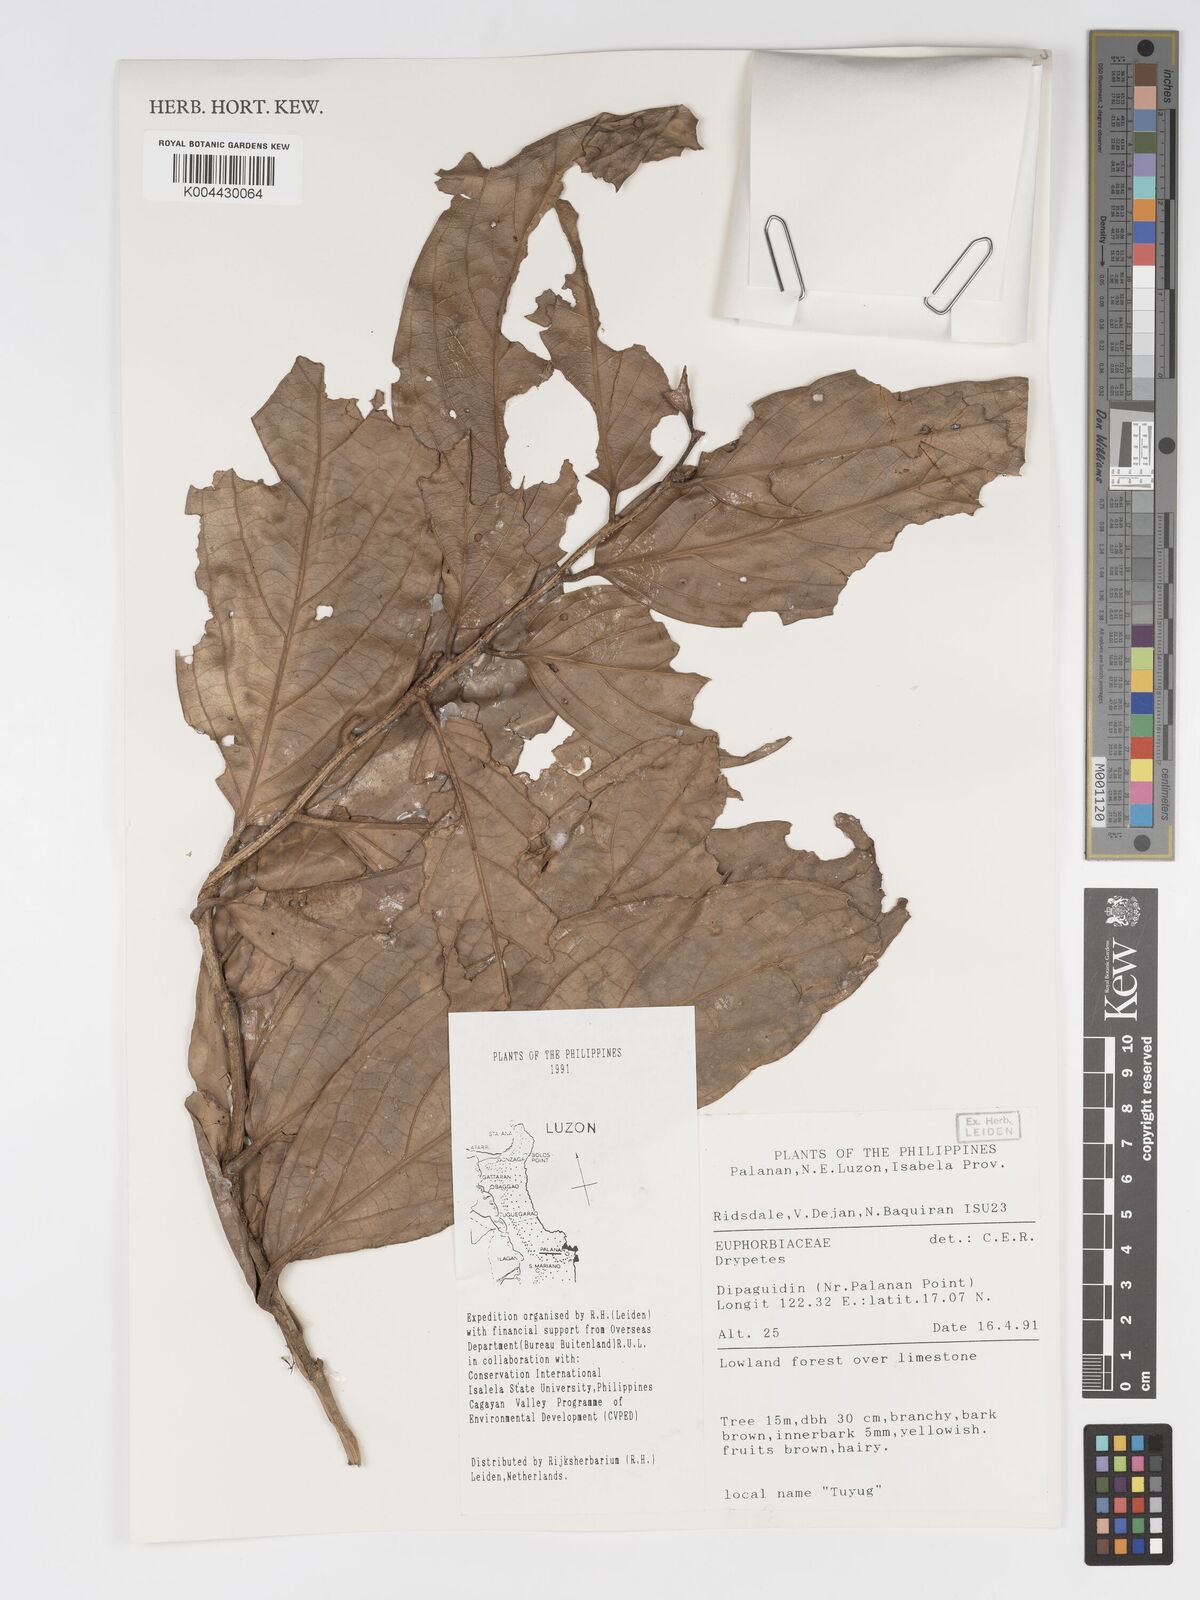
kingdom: Plantae
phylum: Tracheophyta
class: Magnoliopsida
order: Malpighiales
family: Putranjivaceae
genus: Drypetes
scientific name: Drypetes
